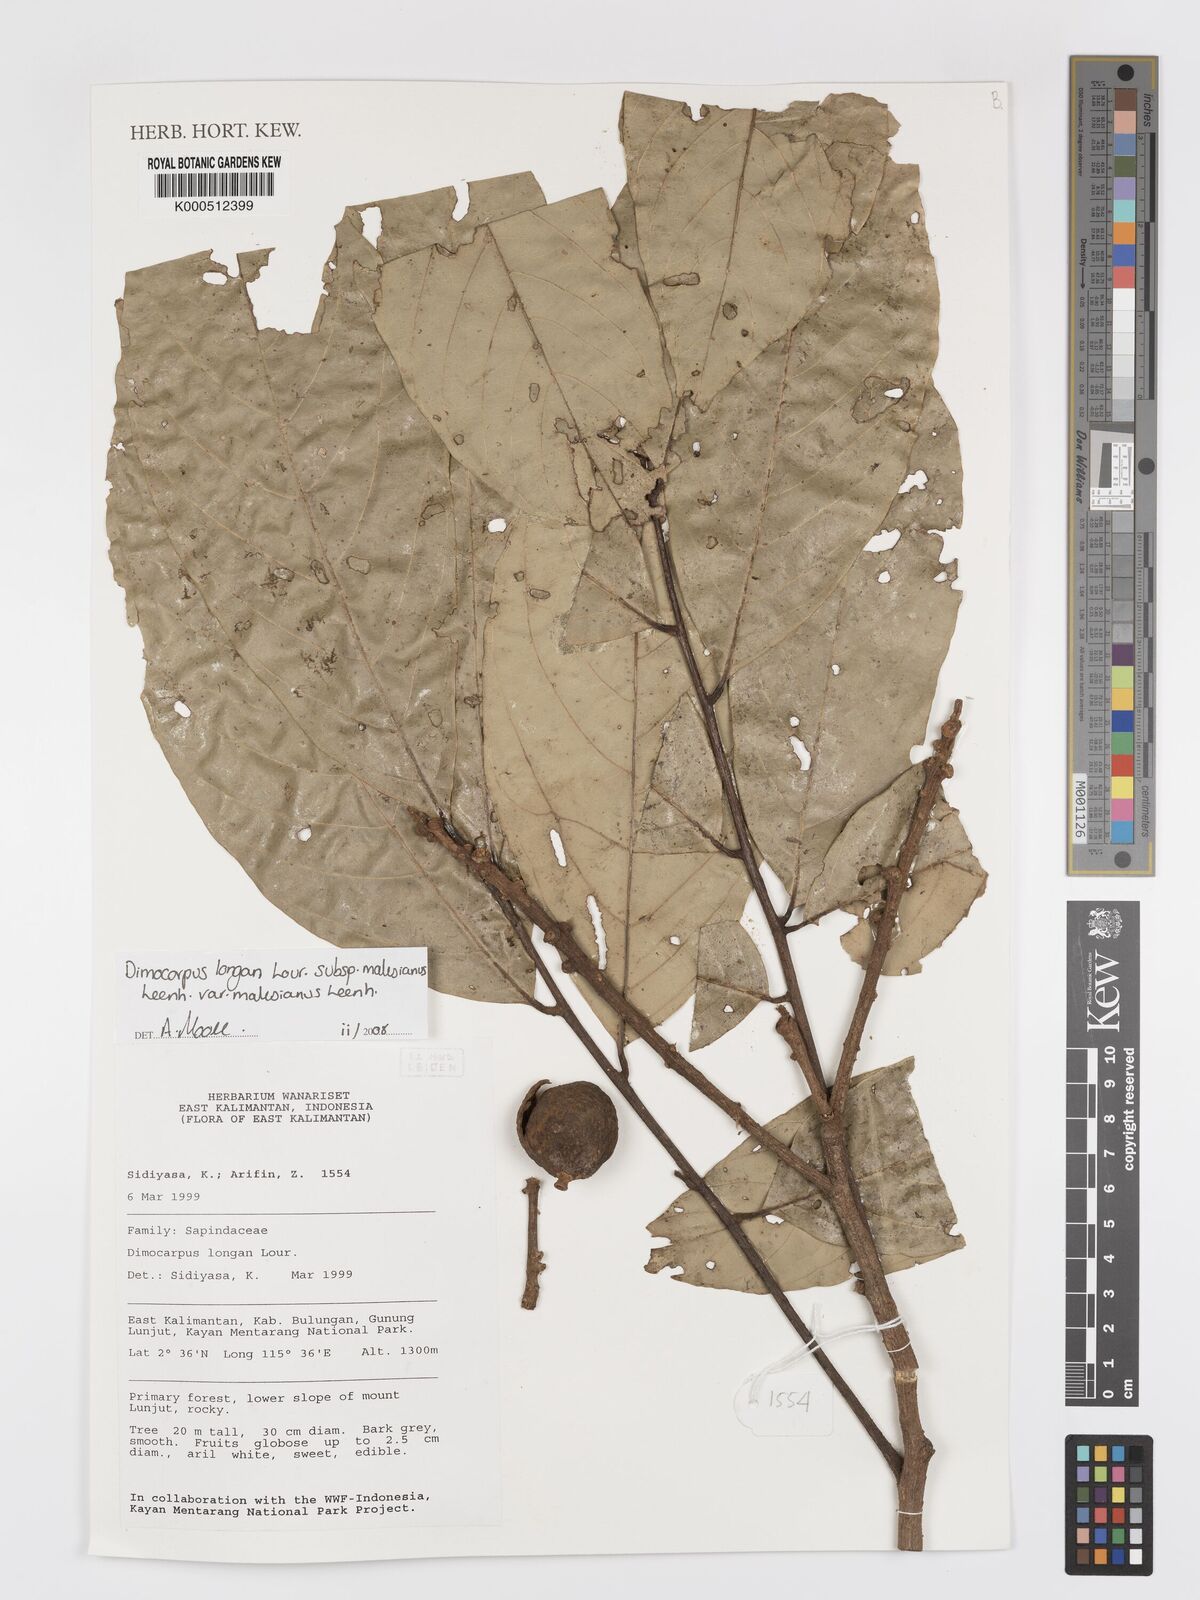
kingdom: Plantae
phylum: Tracheophyta
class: Magnoliopsida
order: Sapindales
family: Sapindaceae
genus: Dimocarpus
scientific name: Dimocarpus malesianus
